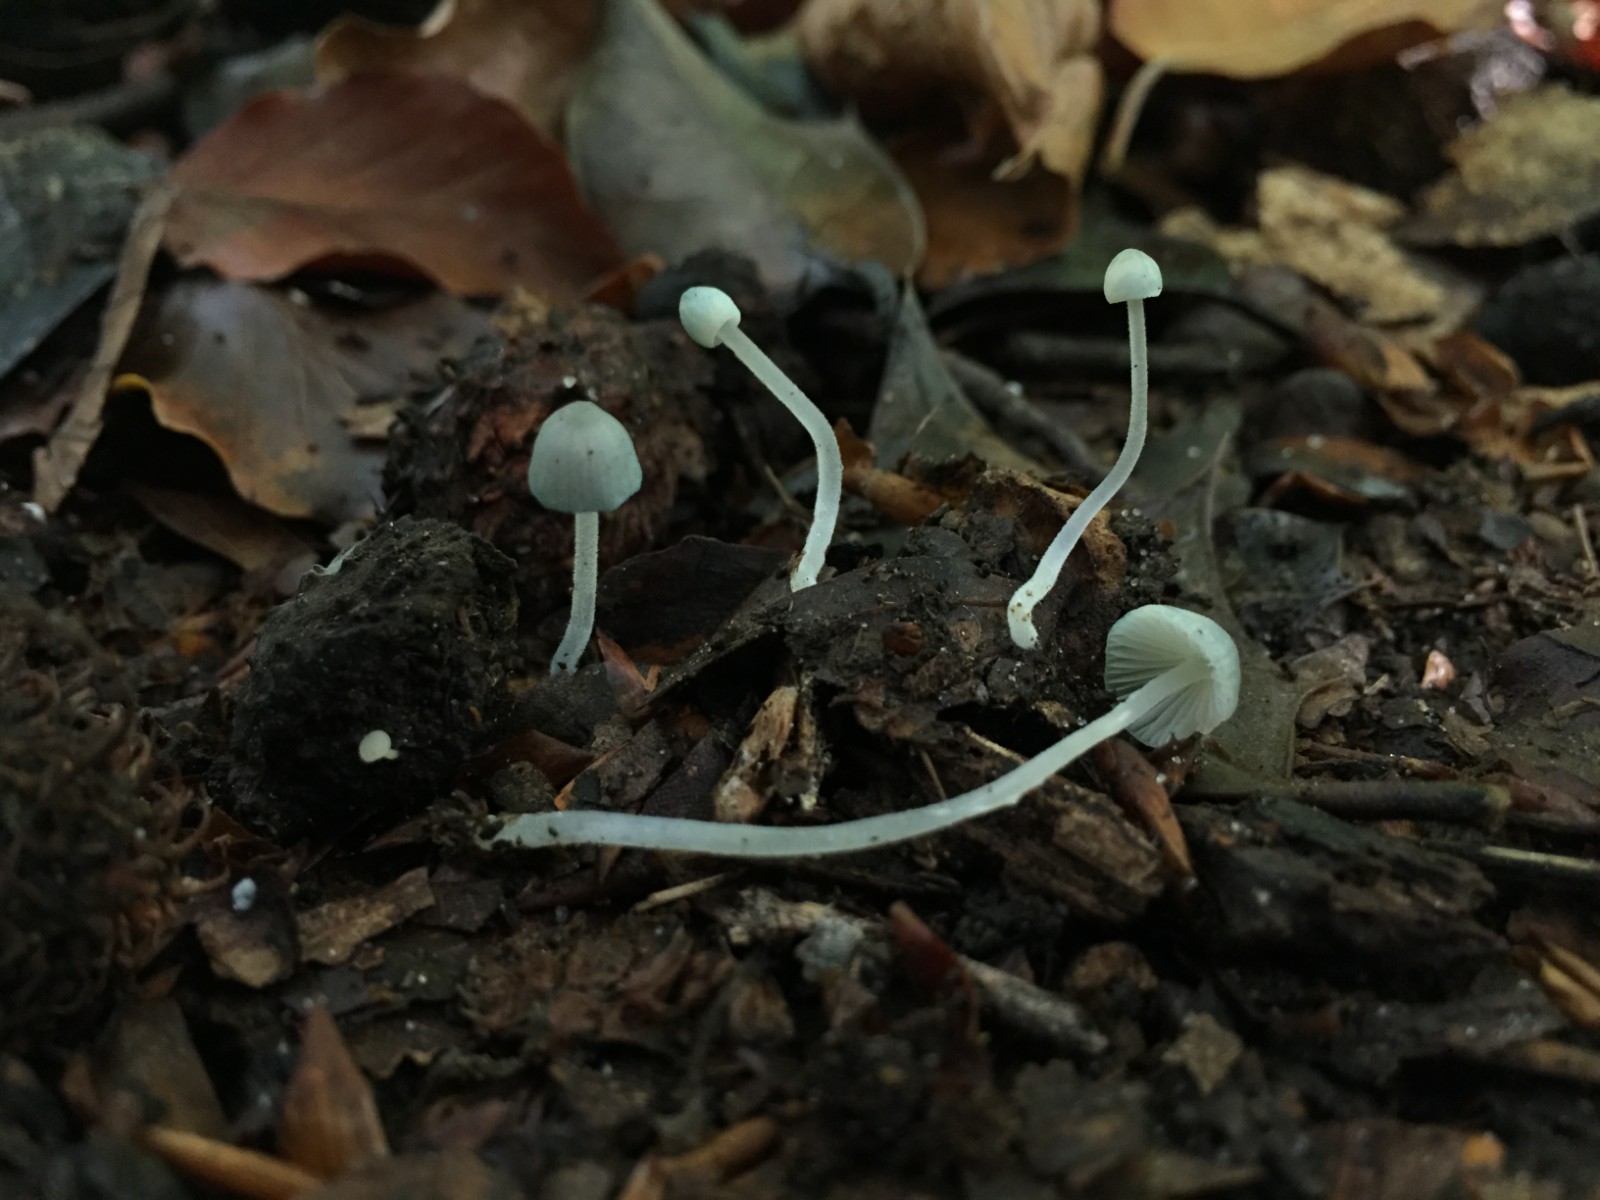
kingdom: Fungi
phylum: Basidiomycota
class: Agaricomycetes
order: Agaricales
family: Mycenaceae
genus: Mycena
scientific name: Mycena amicta
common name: iris-huesvamp
